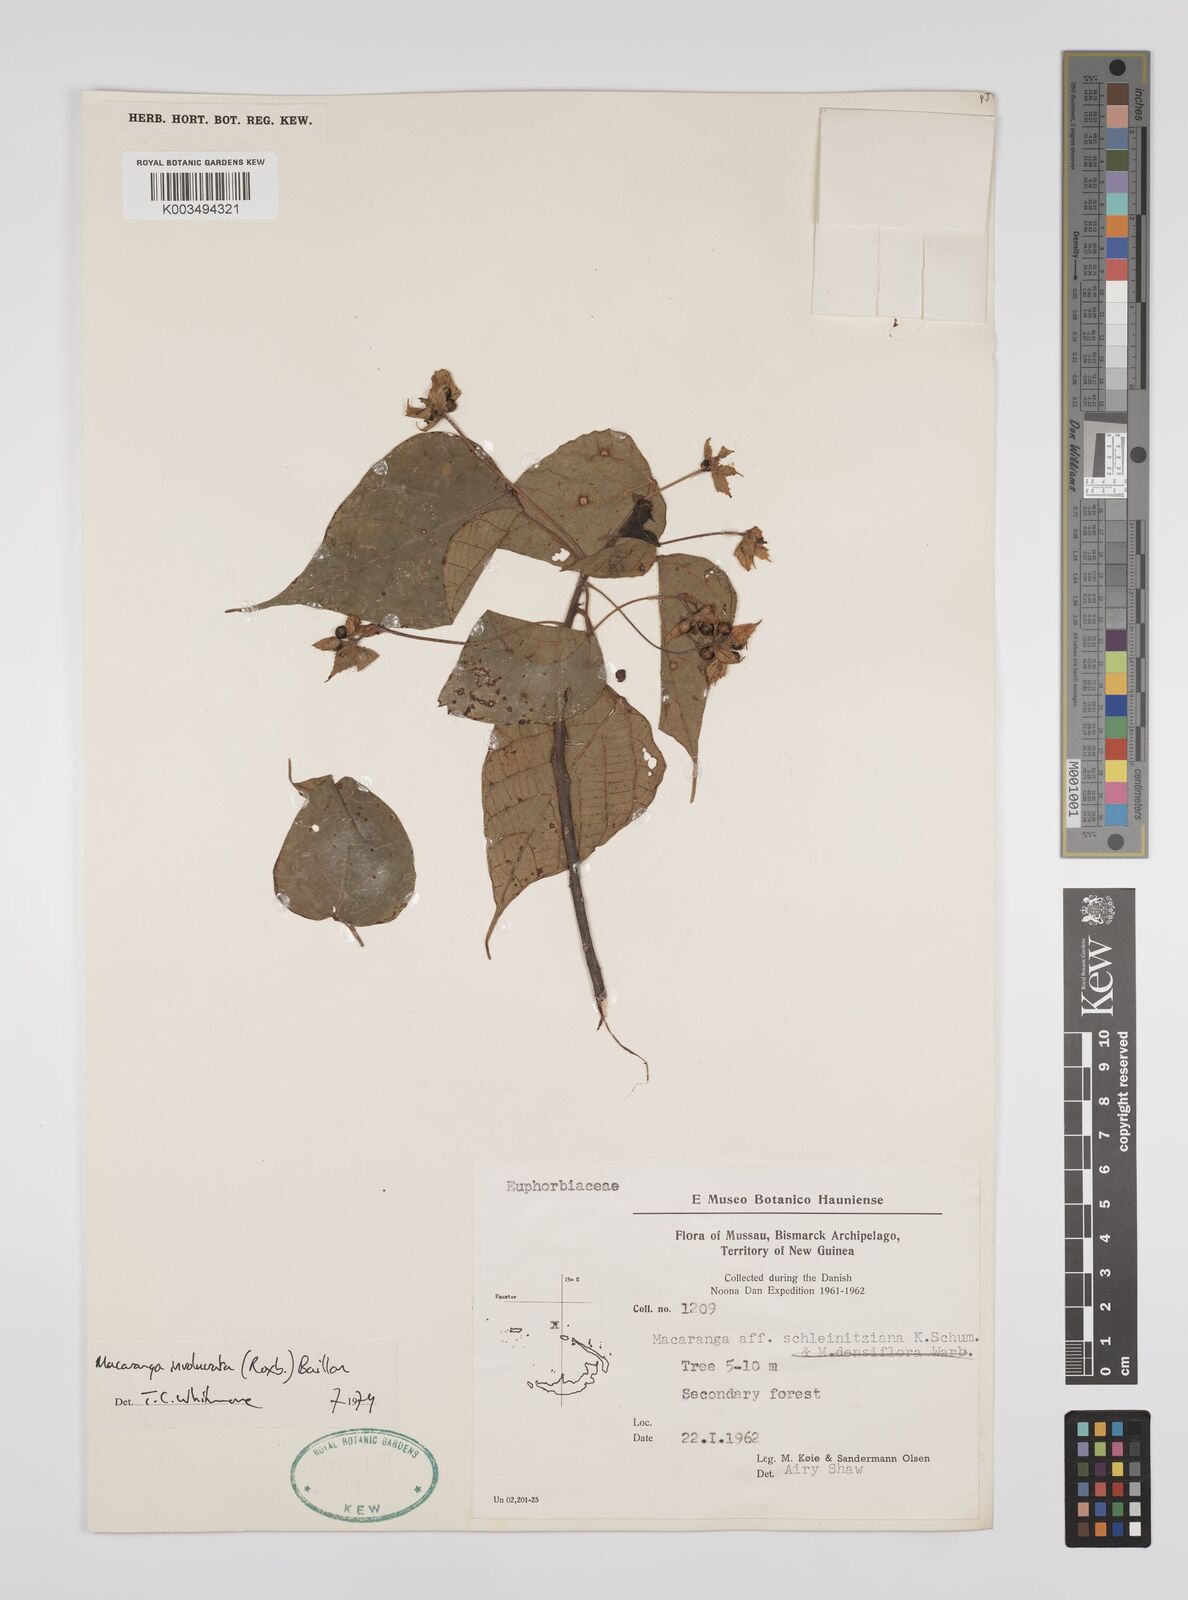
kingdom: Plantae
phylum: Tracheophyta
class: Magnoliopsida
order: Malpighiales
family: Euphorbiaceae
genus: Macaranga
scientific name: Macaranga involucrata
